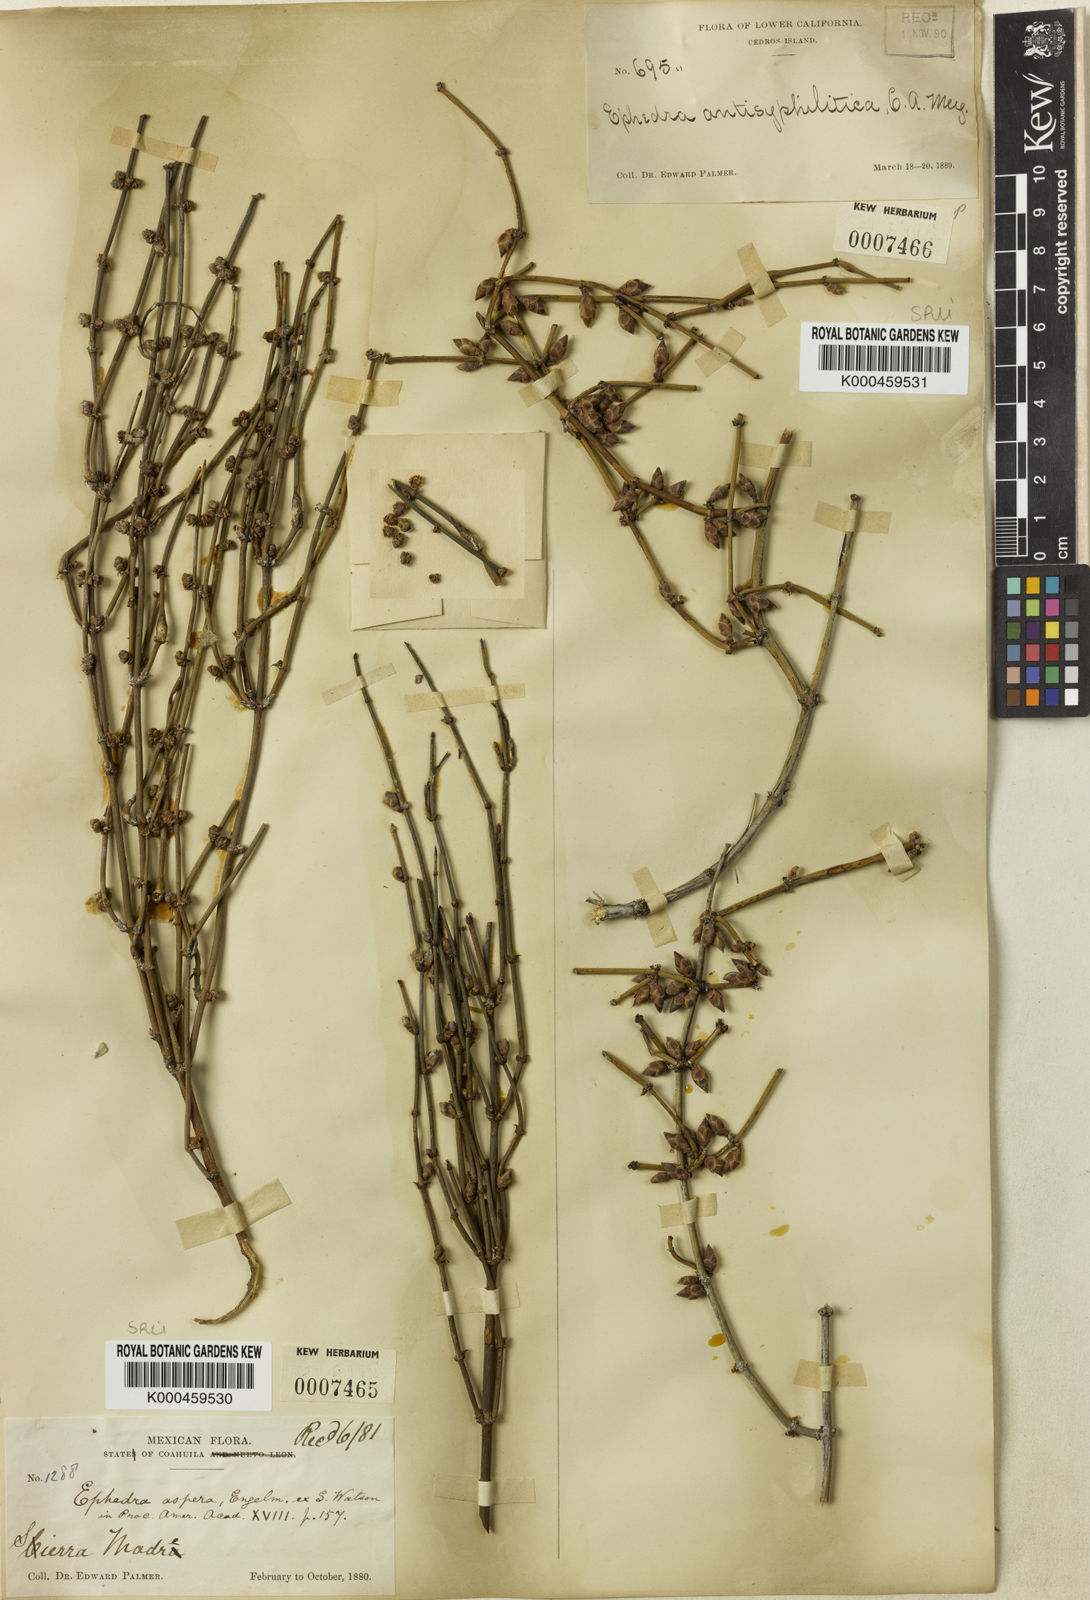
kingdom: Plantae
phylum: Tracheophyta
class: Gnetopsida
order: Ephedrales
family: Ephedraceae
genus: Ephedra
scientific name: Ephedra aspera
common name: Boundary ephedra
